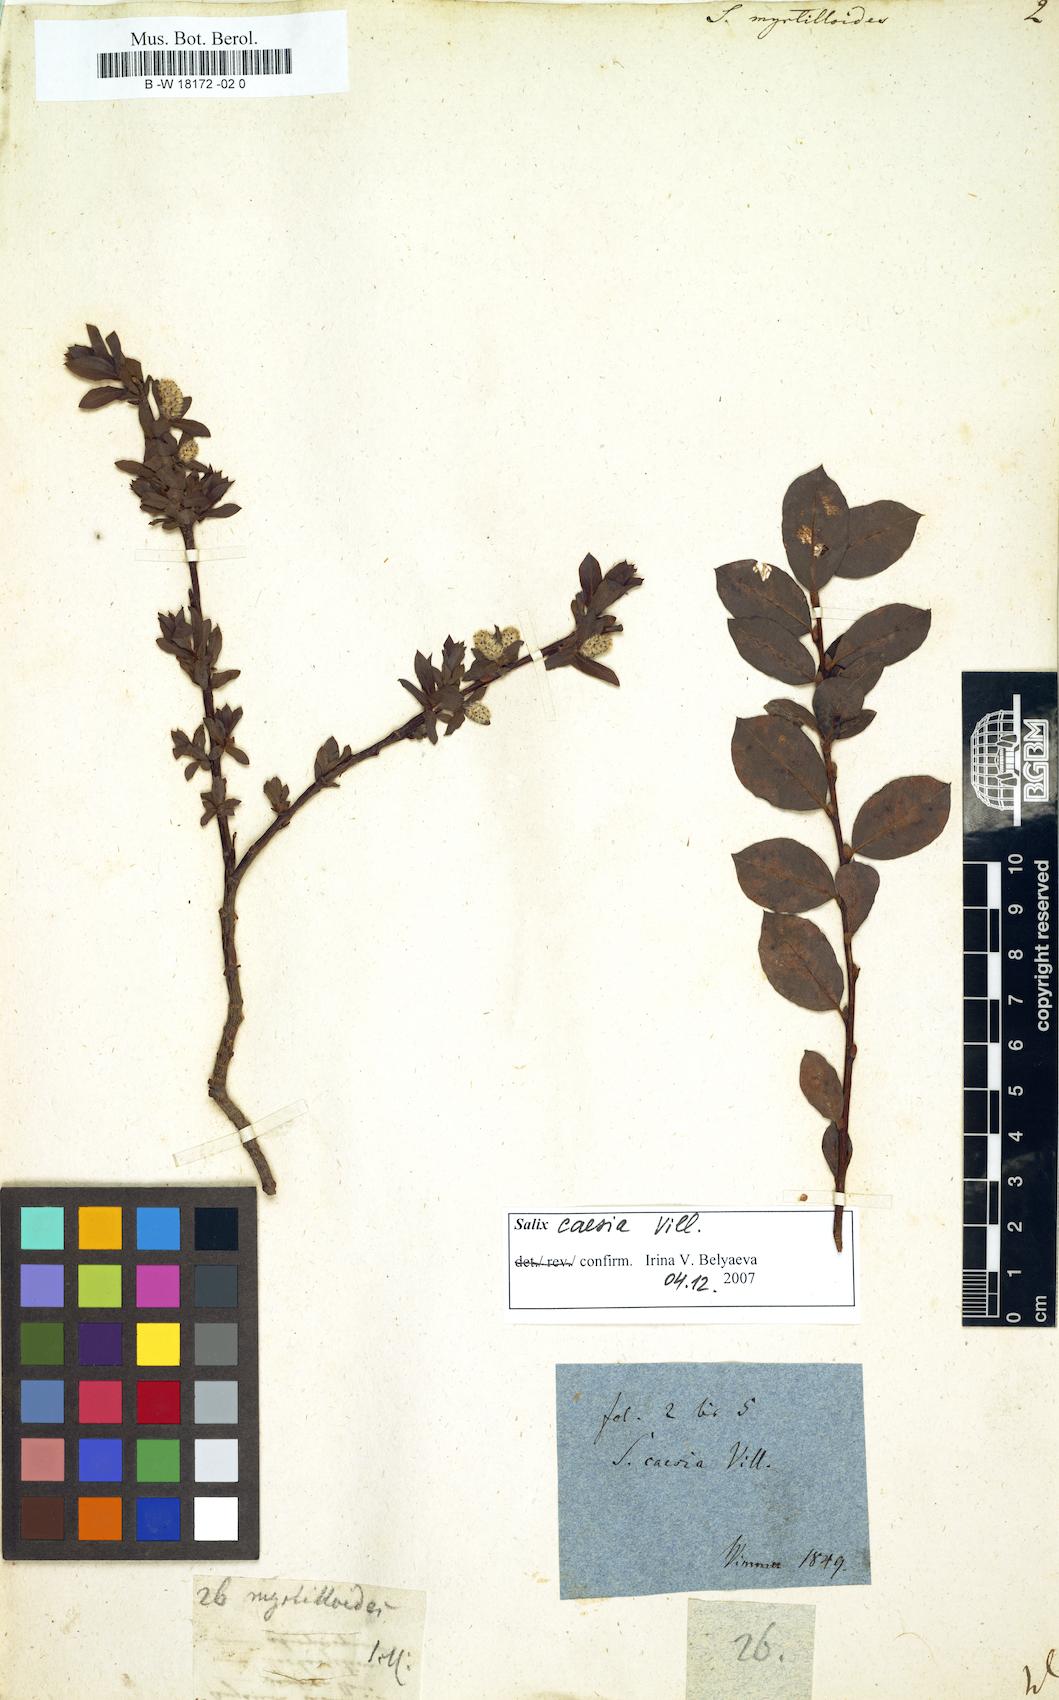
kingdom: Plantae
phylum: Tracheophyta
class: Magnoliopsida
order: Malpighiales
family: Salicaceae
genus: Salix
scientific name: Salix myrtilloides
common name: Myrtle-leaved willow
